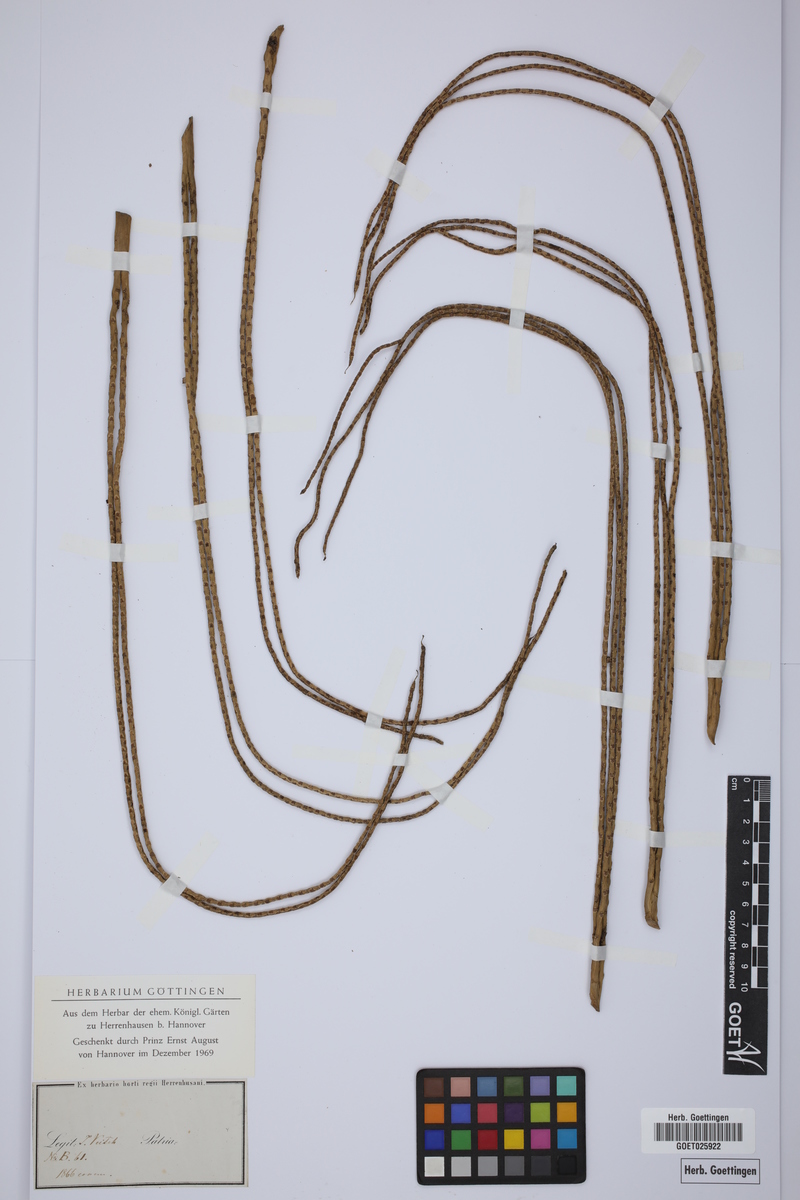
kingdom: Plantae
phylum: Tracheophyta
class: Liliopsida
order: Arecales
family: Arecaceae
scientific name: Arecaceae
